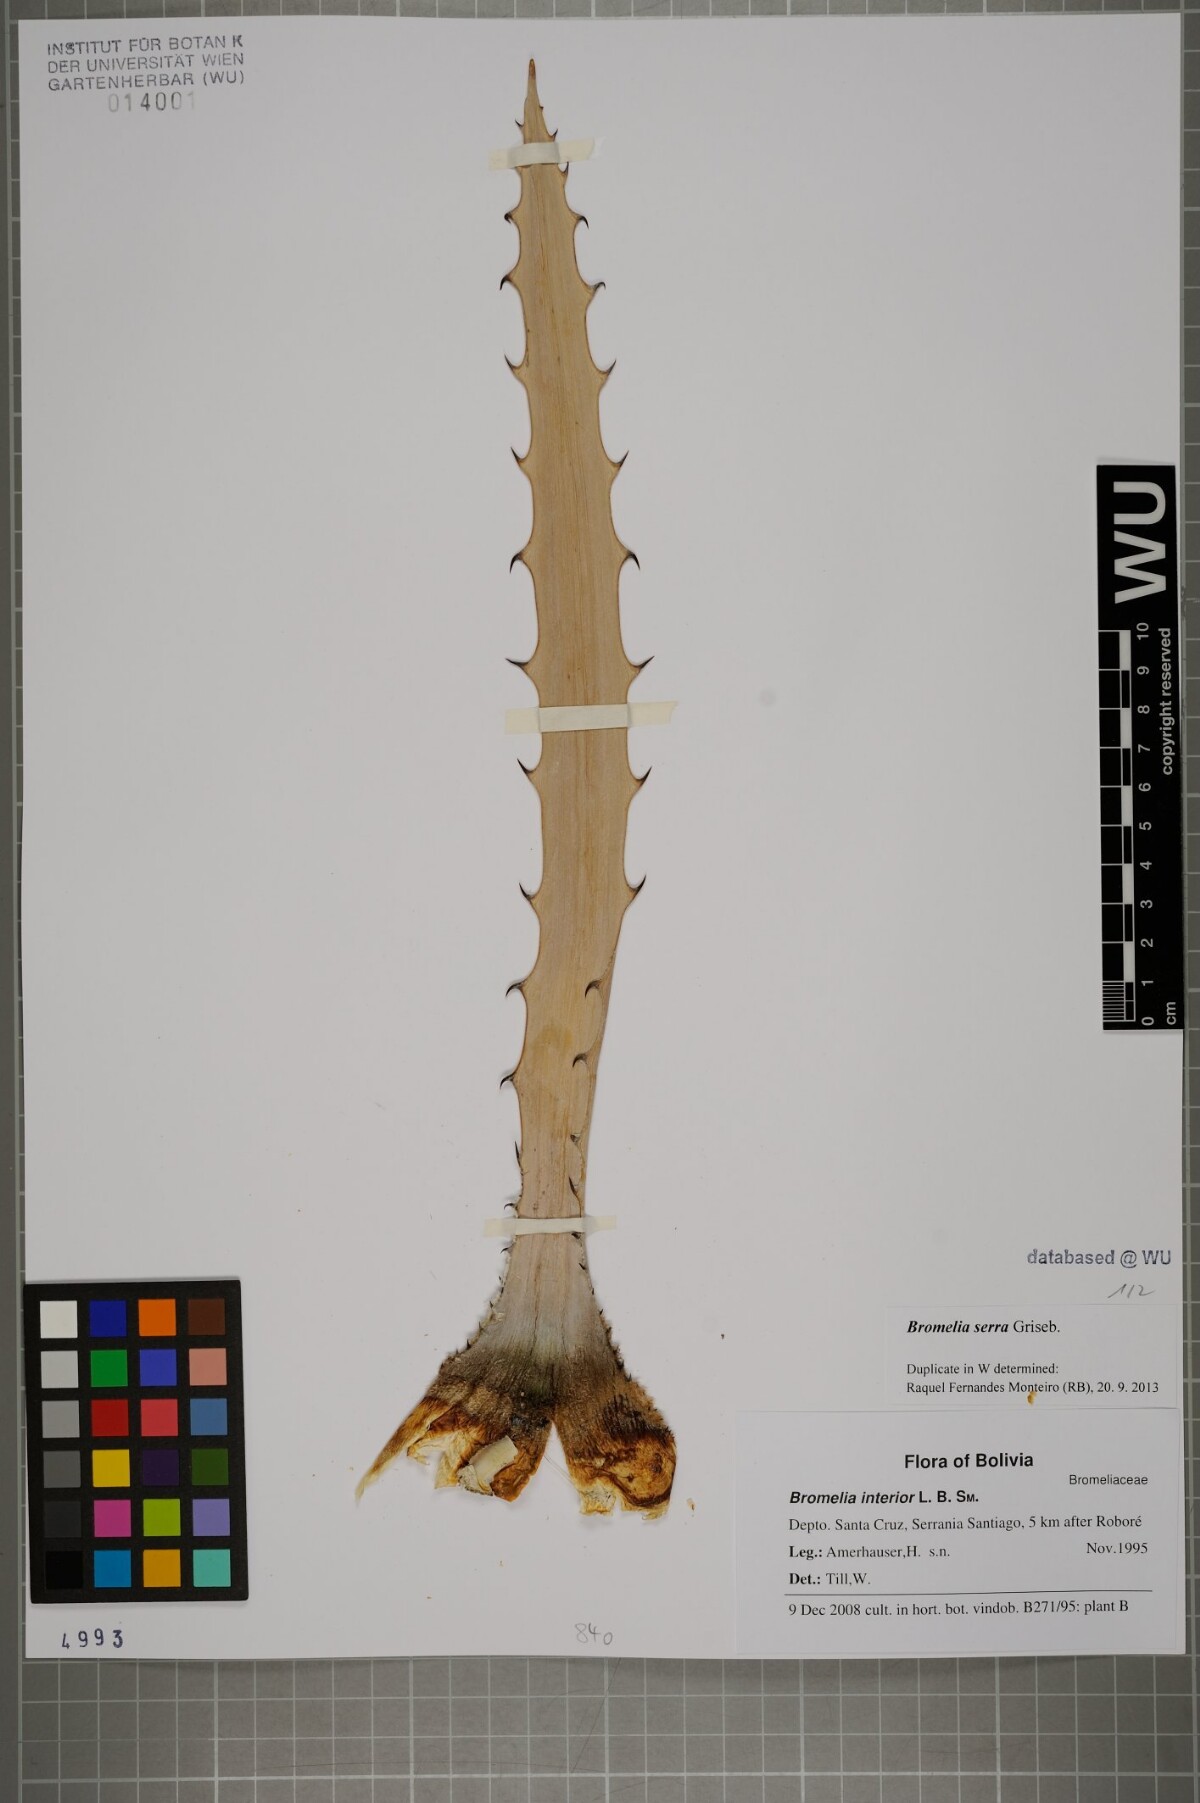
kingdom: Plantae
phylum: Tracheophyta
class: Liliopsida
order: Poales
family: Bromeliaceae
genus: Bromelia
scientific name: Bromelia serra
